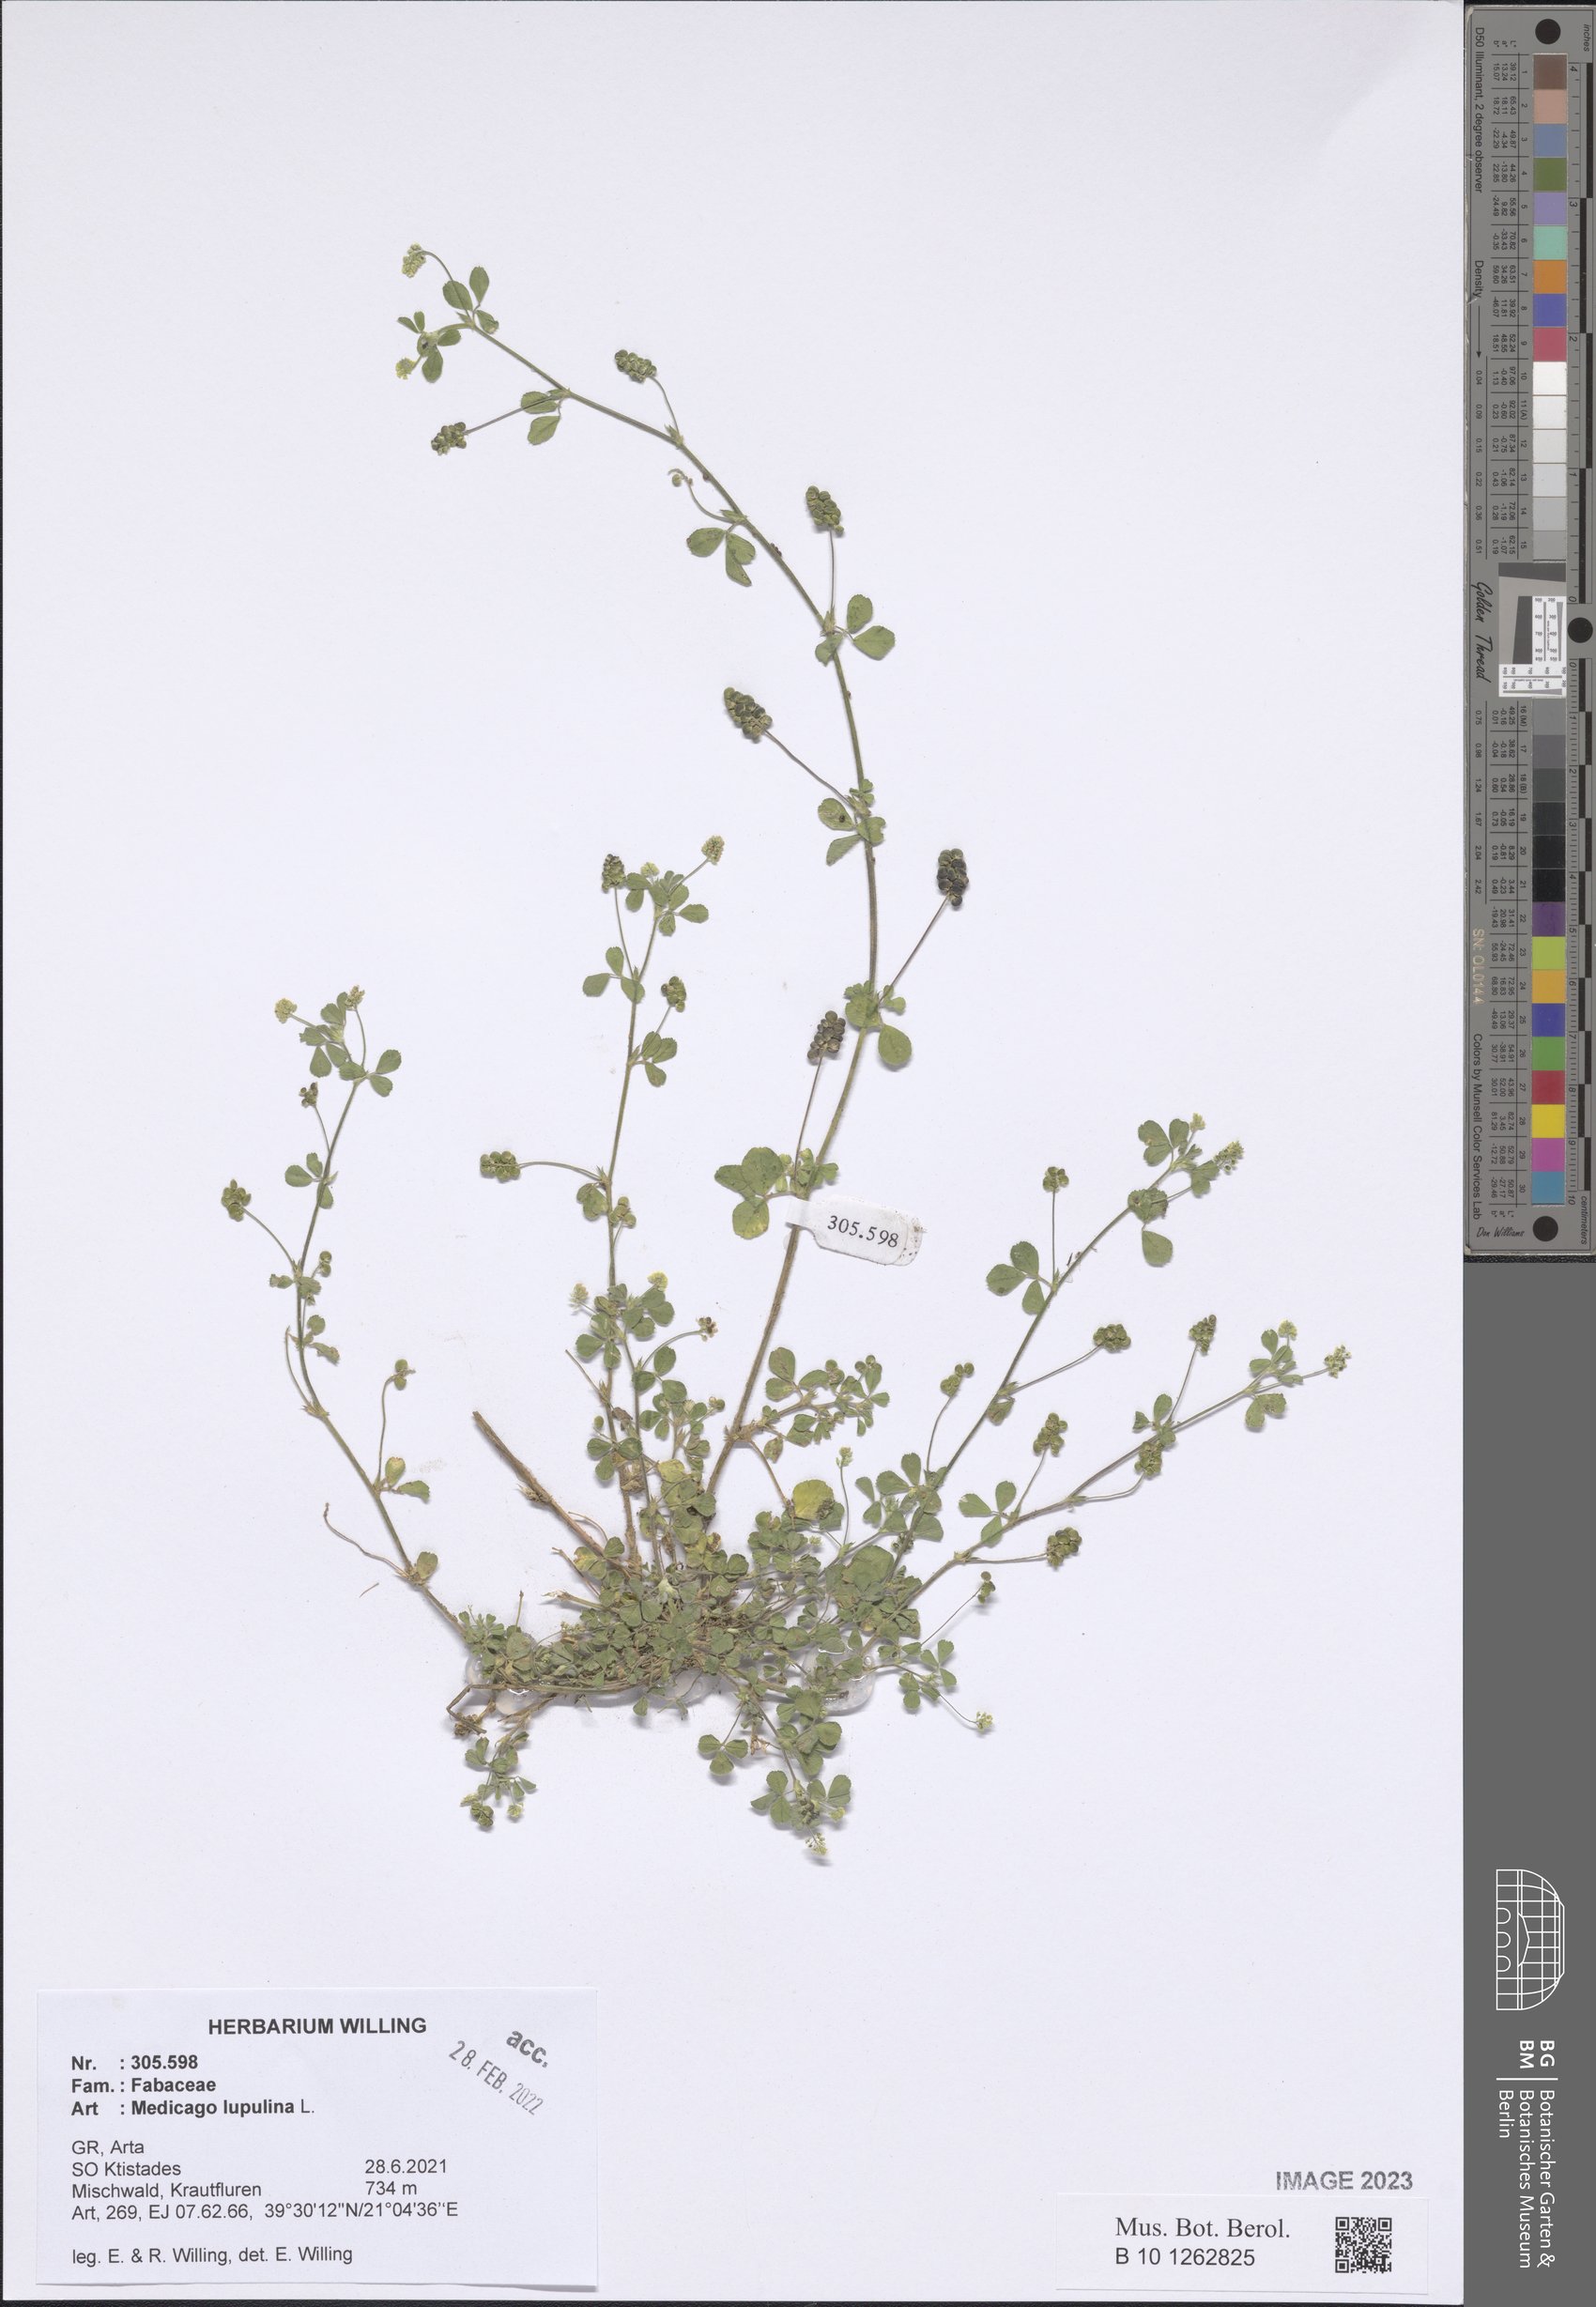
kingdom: Plantae
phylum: Tracheophyta
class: Magnoliopsida
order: Fabales
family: Fabaceae
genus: Medicago
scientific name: Medicago lupulina
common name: Black medick
